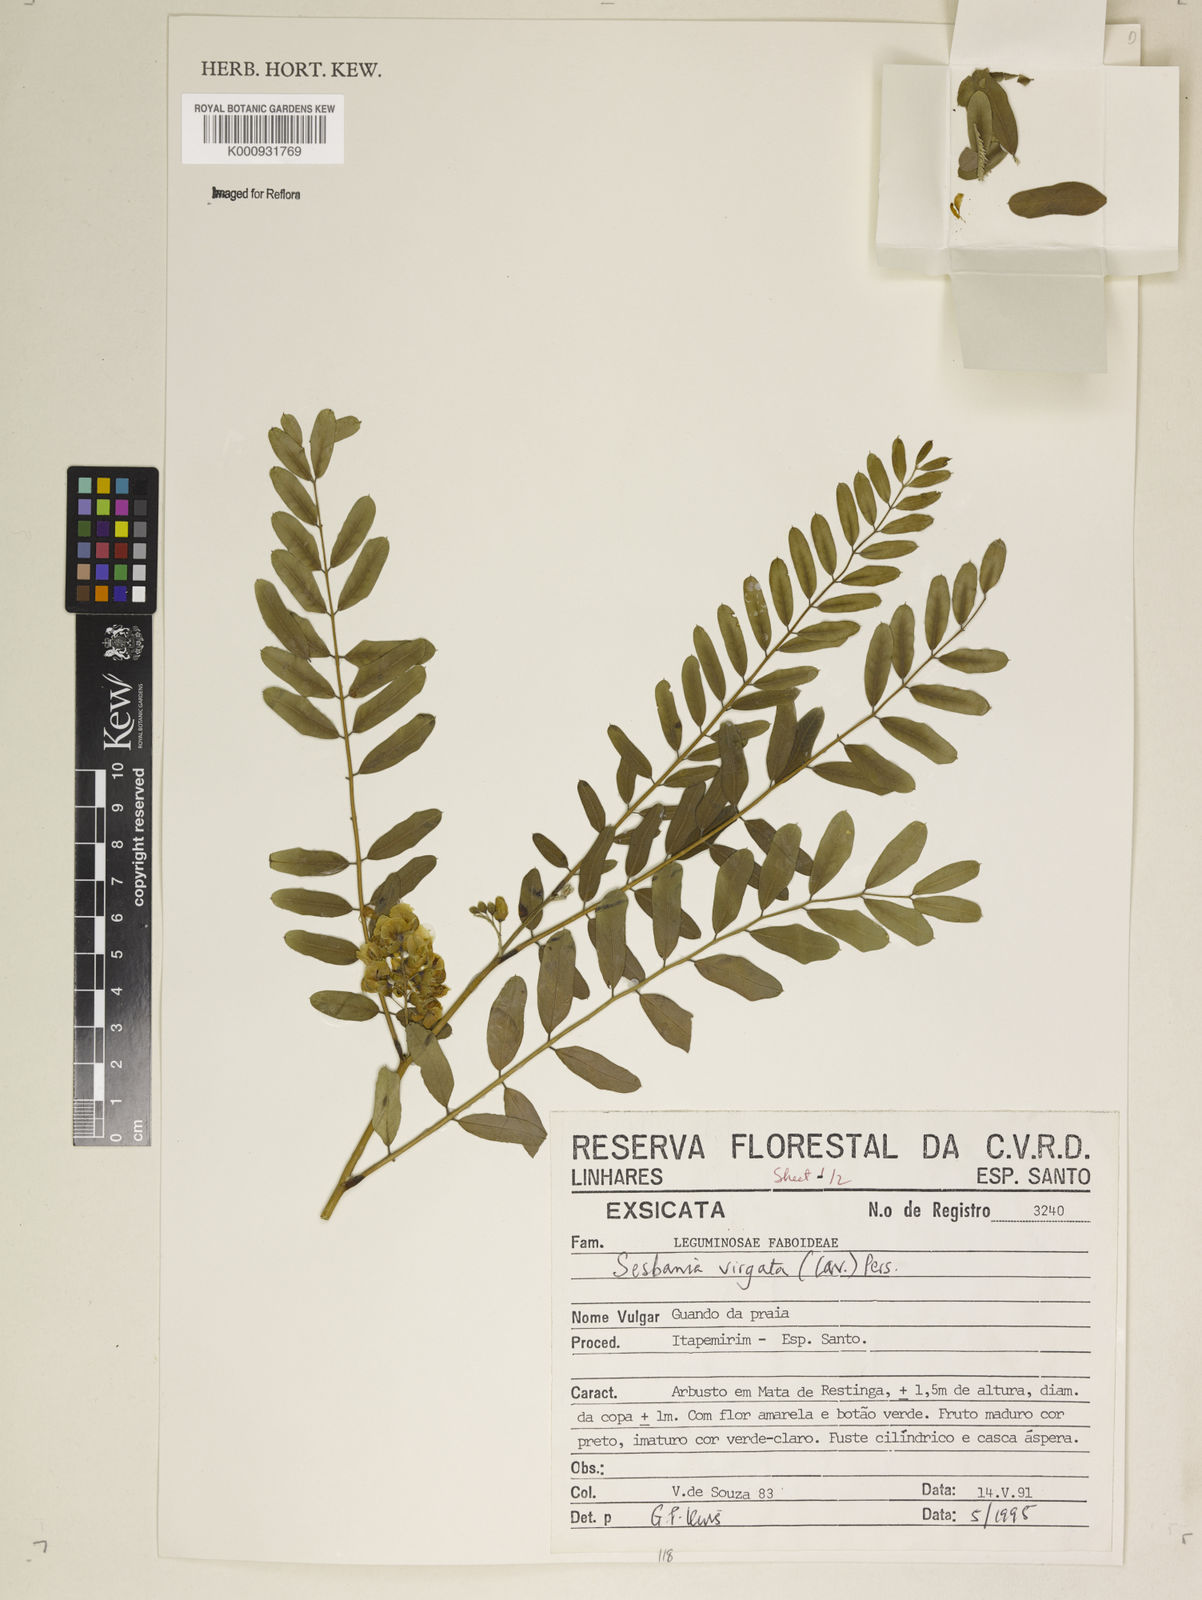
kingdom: Plantae
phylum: Tracheophyta
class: Magnoliopsida
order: Fabales
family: Fabaceae
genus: Sesbania
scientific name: Sesbania
